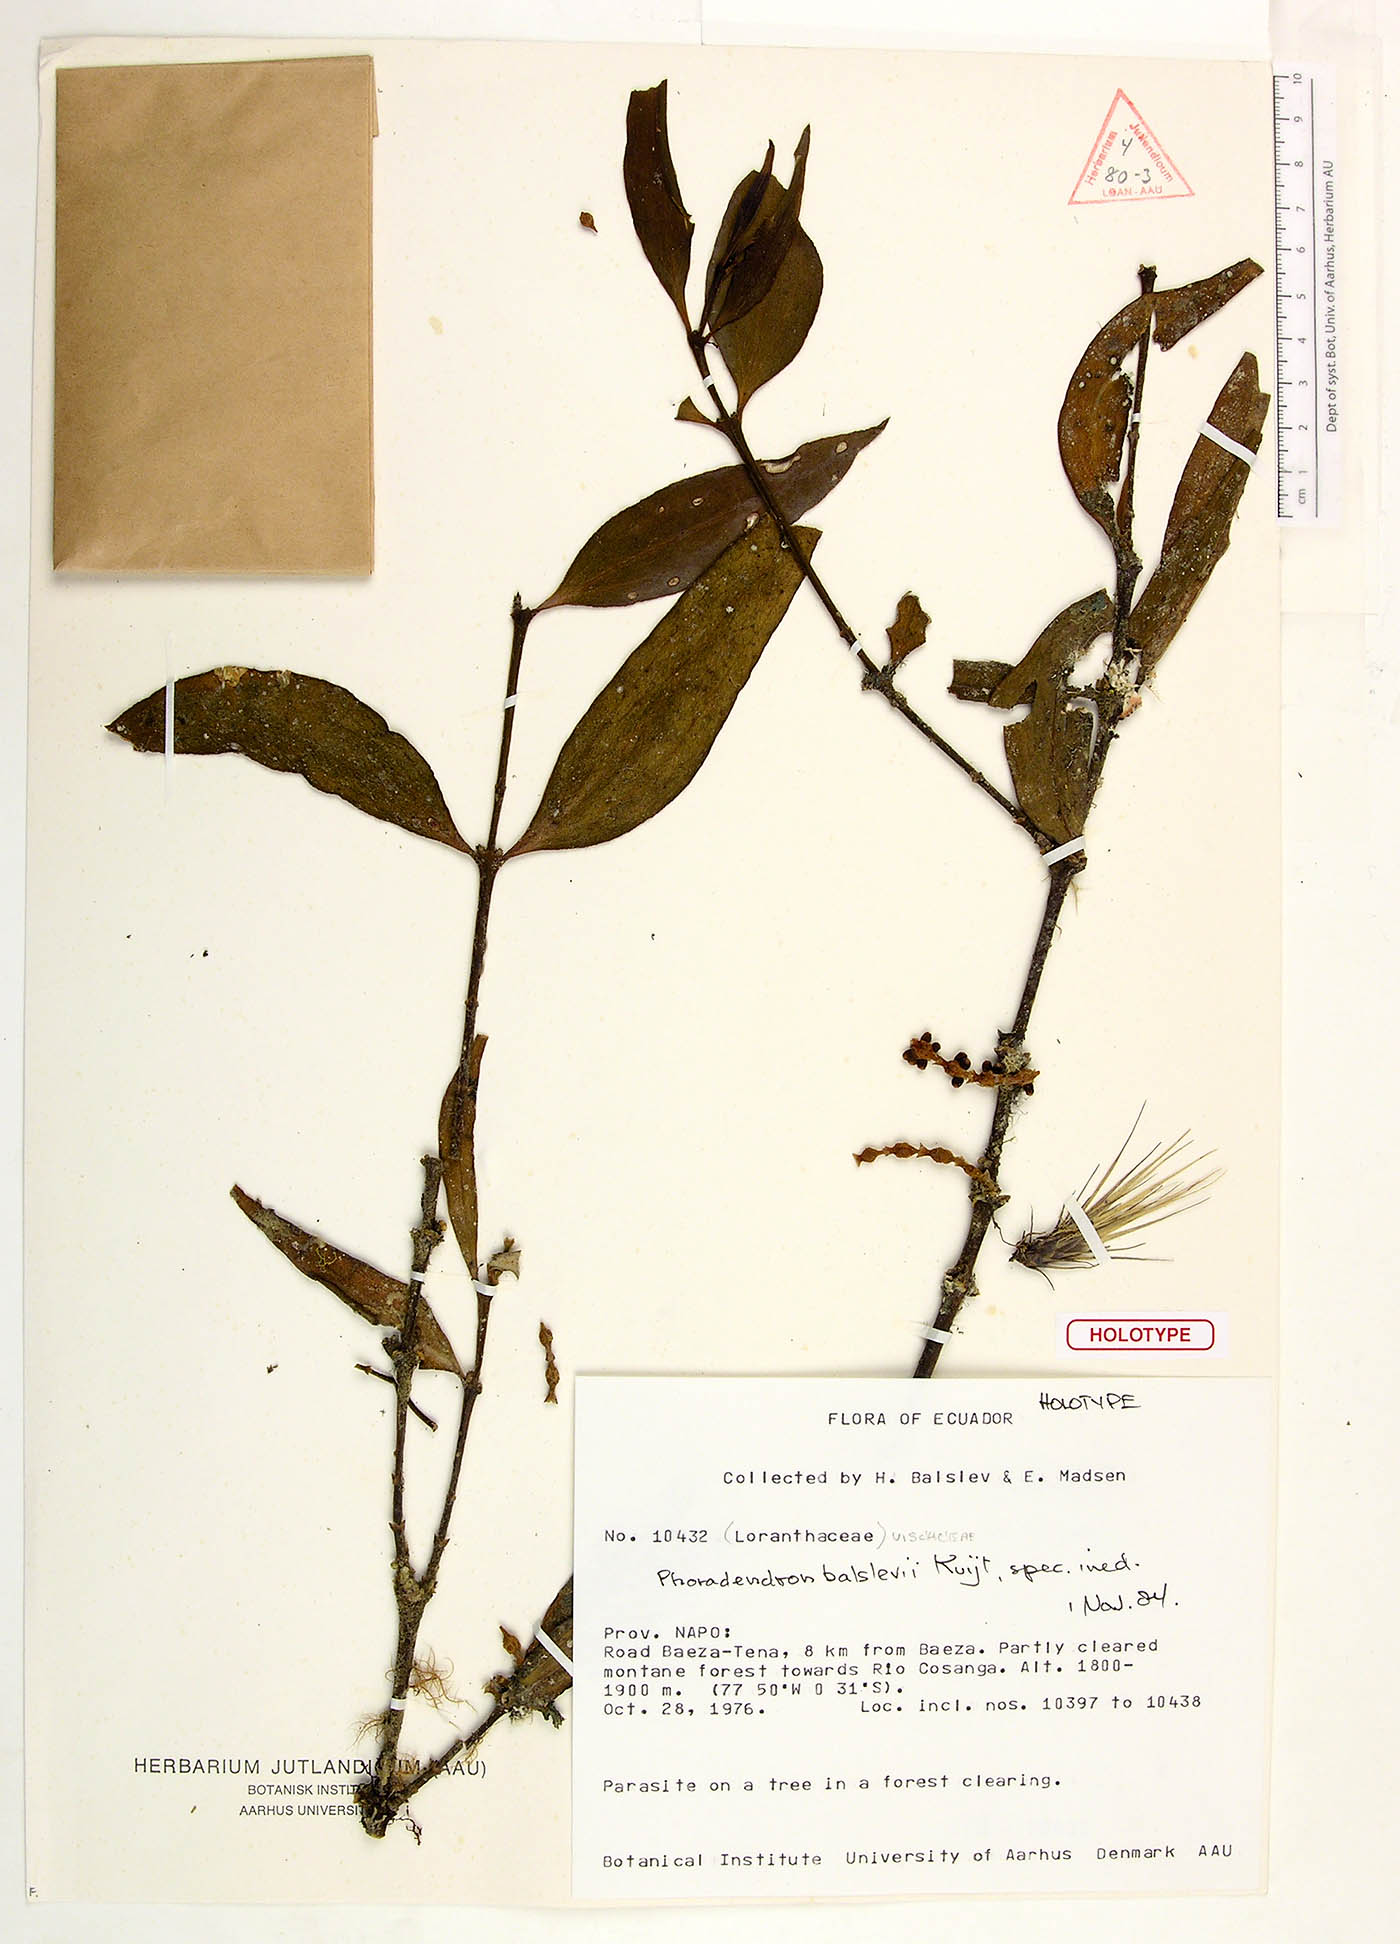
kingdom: Plantae
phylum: Tracheophyta
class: Magnoliopsida
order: Santalales
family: Viscaceae
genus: Phoradendron
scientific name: Phoradendron chrysocladon
